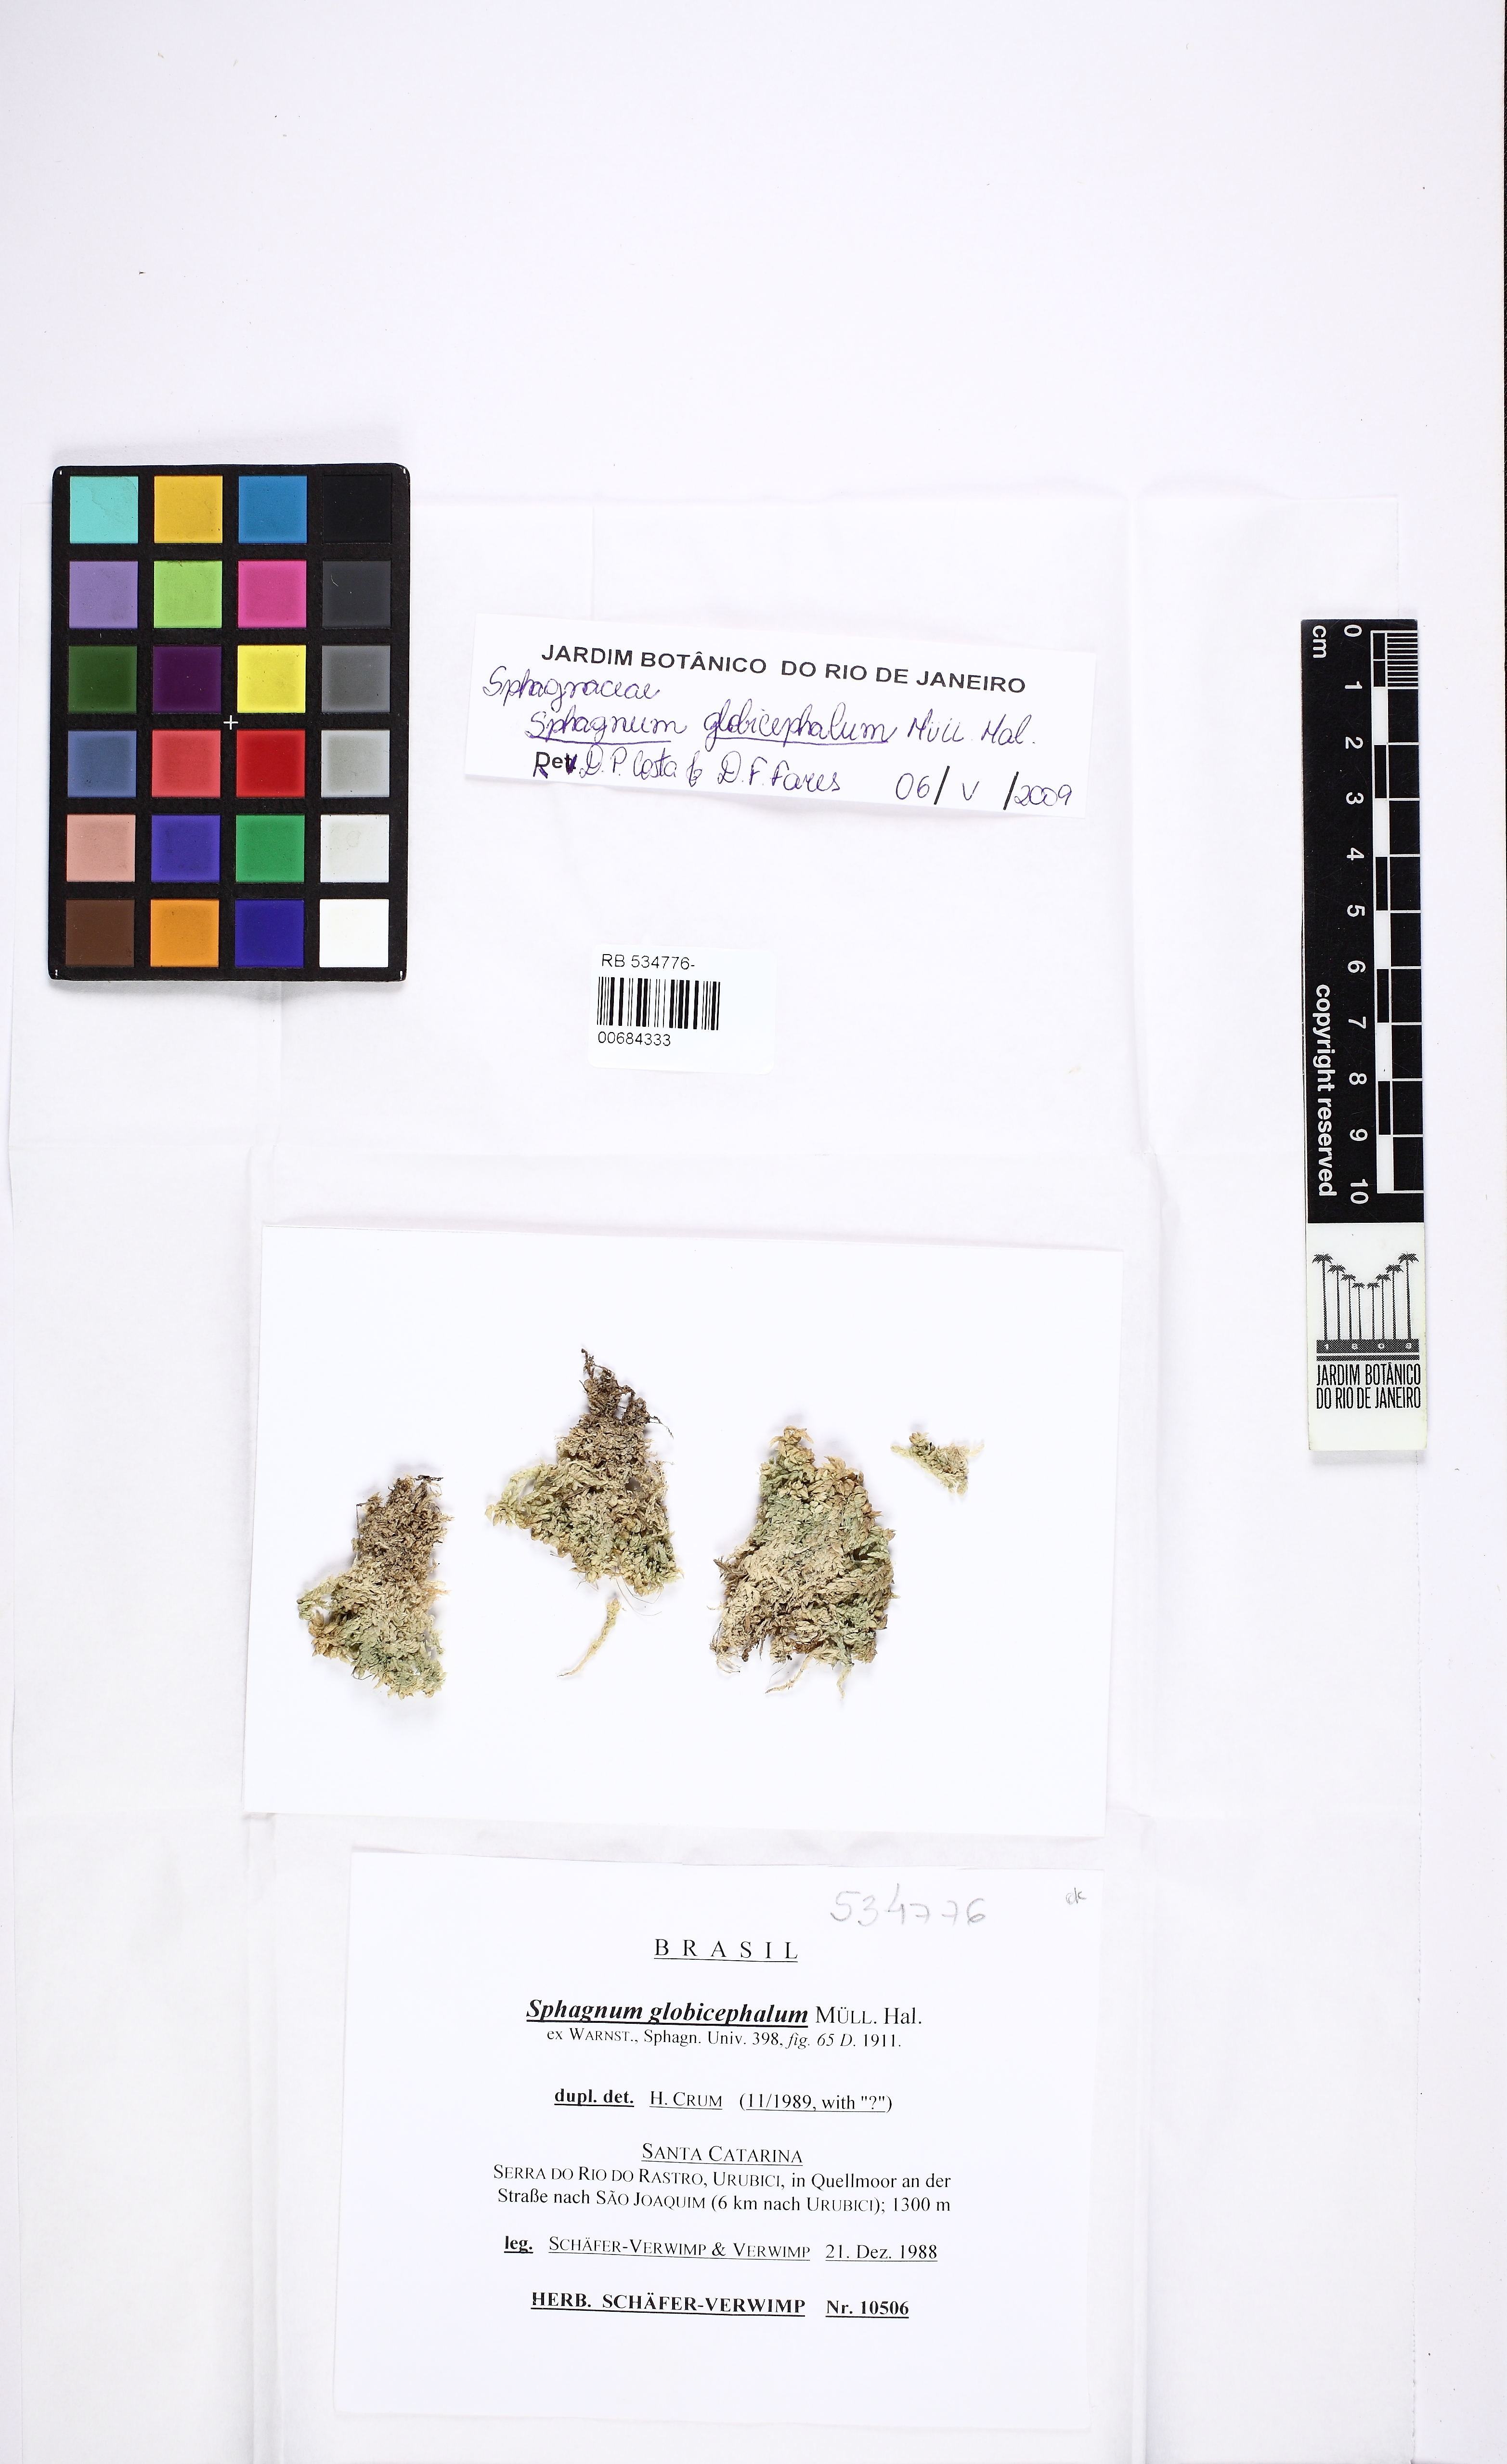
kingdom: Plantae
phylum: Bryophyta
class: Sphagnopsida
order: Sphagnales
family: Sphagnaceae
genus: Sphagnum
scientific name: Sphagnum globicephalum
